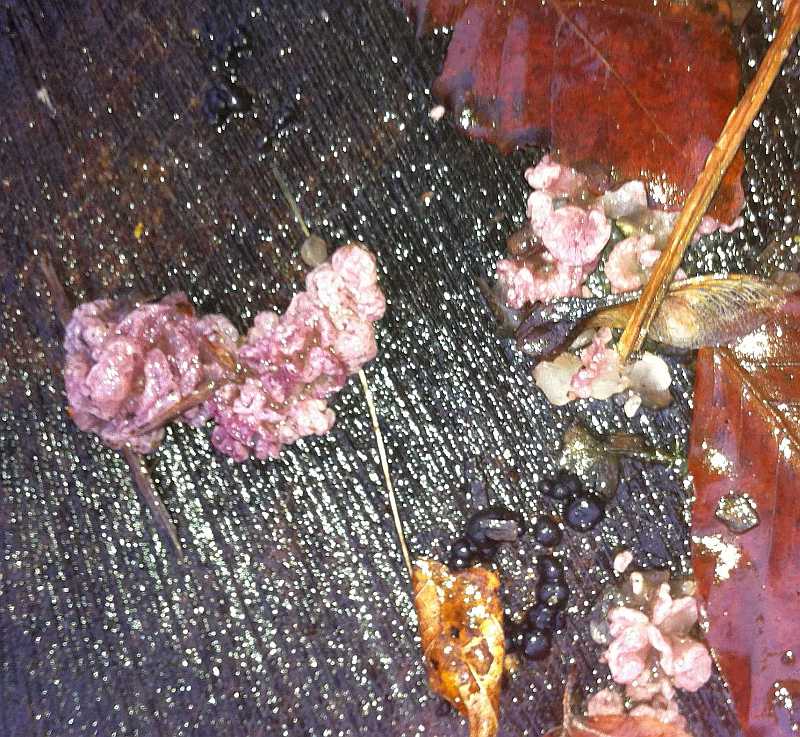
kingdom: Fungi
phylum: Basidiomycota
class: Agaricomycetes
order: Agaricales
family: Cyphellaceae
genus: Chondrostereum
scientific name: Chondrostereum purpureum
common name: purpurlædersvamp
